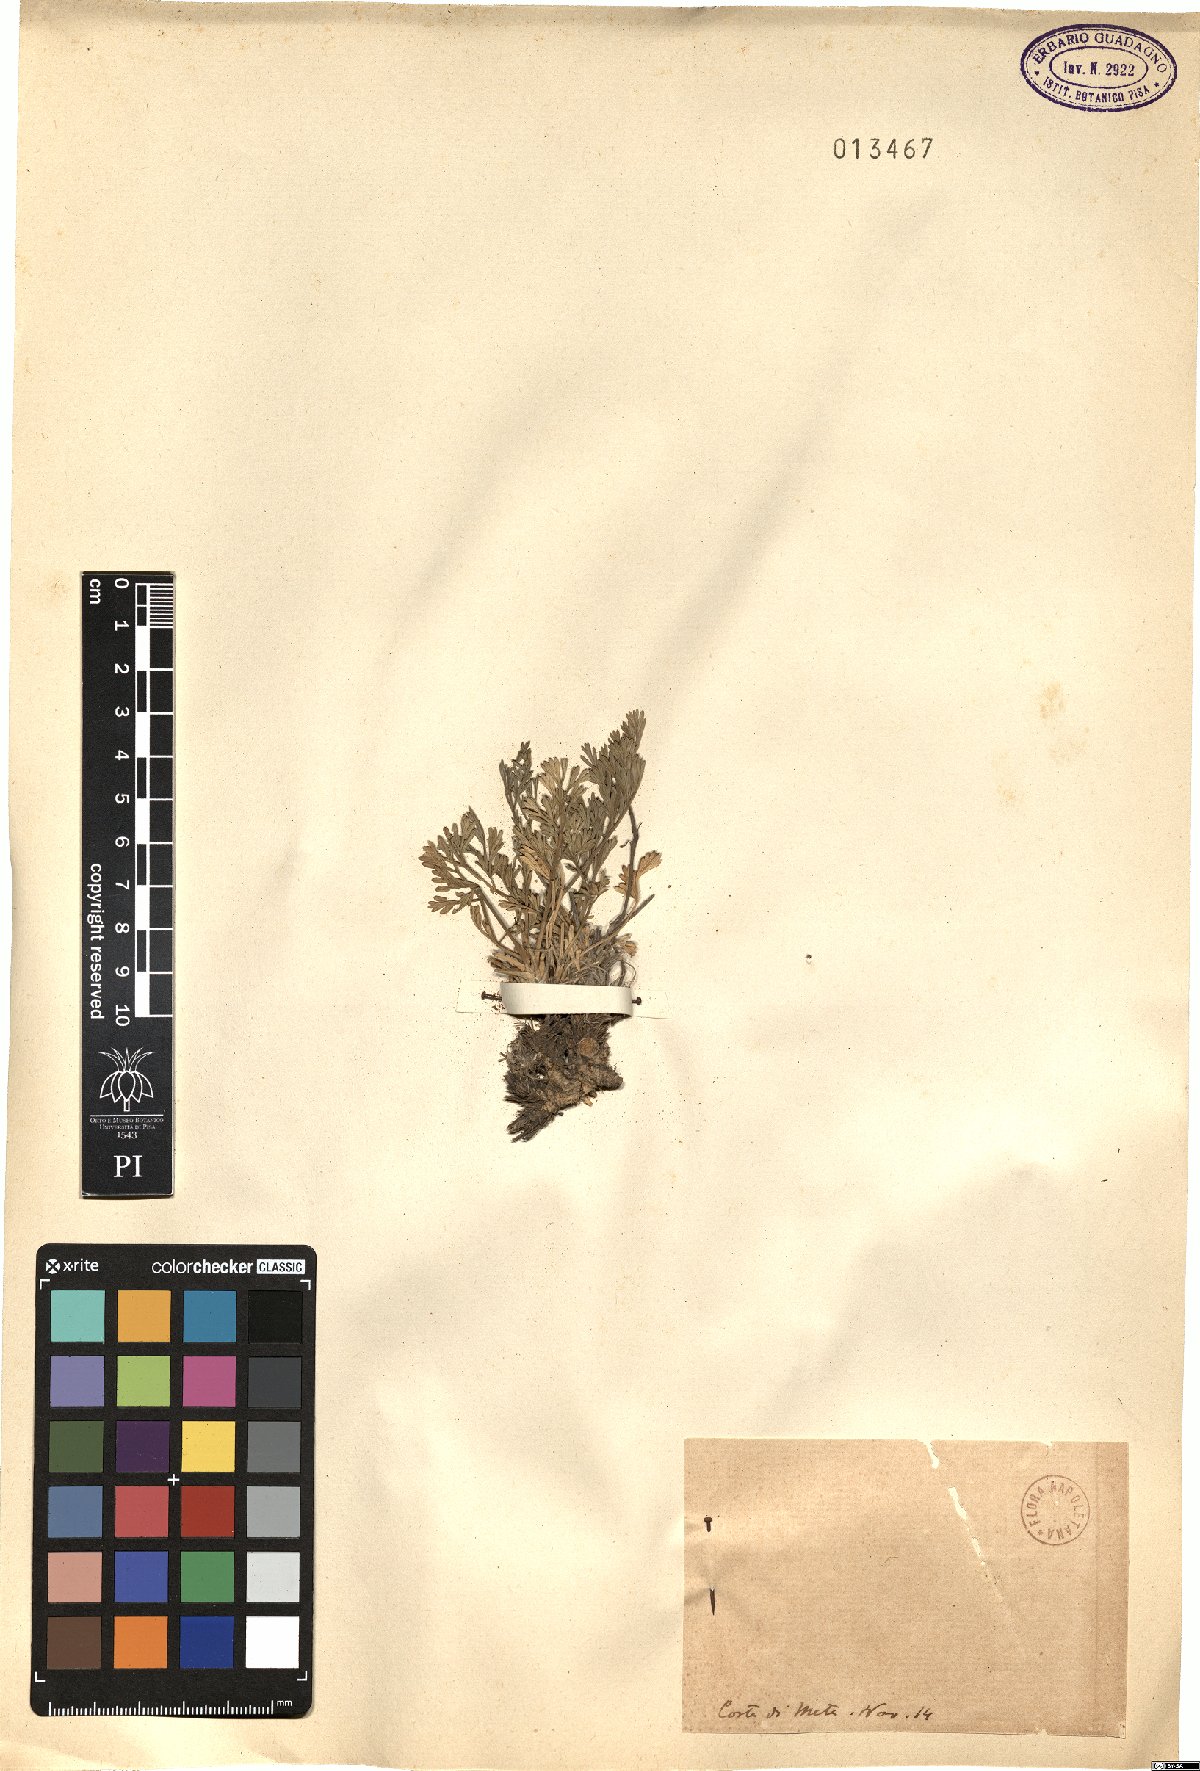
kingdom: Plantae
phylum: Tracheophyta
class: Magnoliopsida
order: Apiales
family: Apiaceae
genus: Seseli
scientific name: Seseli
